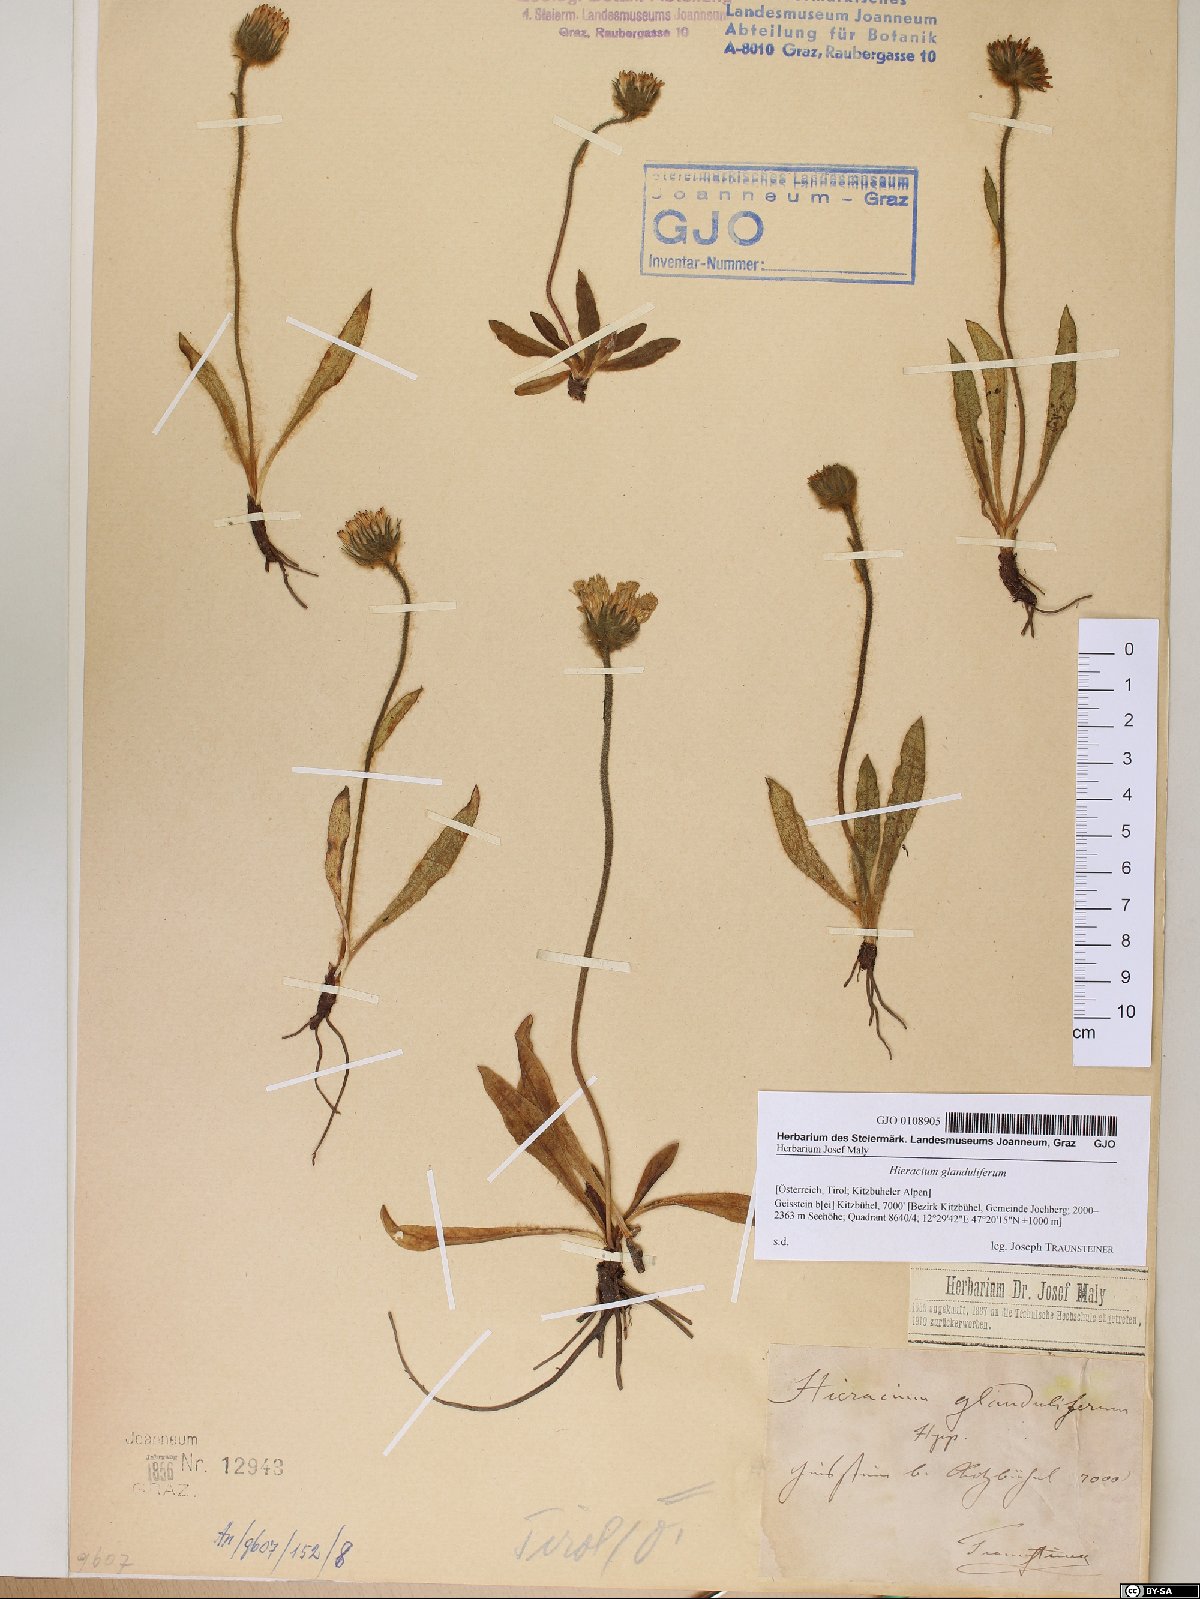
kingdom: Plantae
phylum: Tracheophyta
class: Magnoliopsida
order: Asterales
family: Asteraceae
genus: Hieracium
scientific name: Hieracium piliferum
